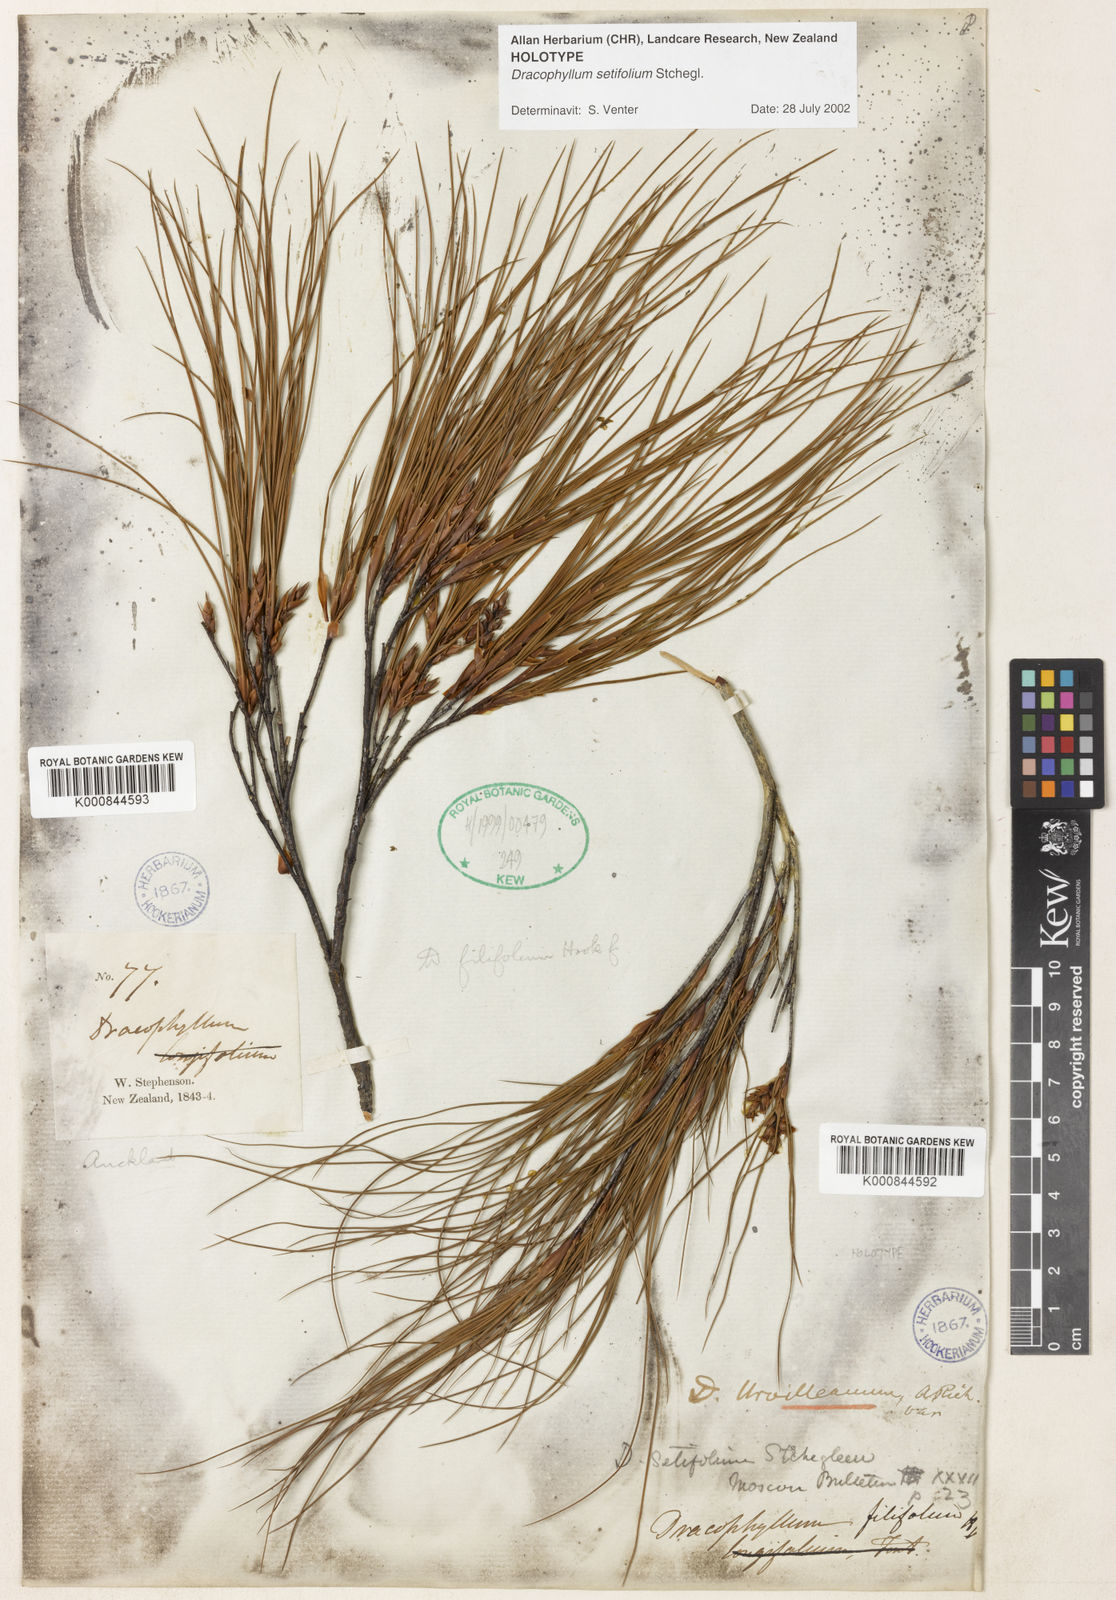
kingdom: Plantae
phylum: Tracheophyta
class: Magnoliopsida
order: Ericales
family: Ericaceae
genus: Dracophyllum
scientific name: Dracophyllum filifolium
